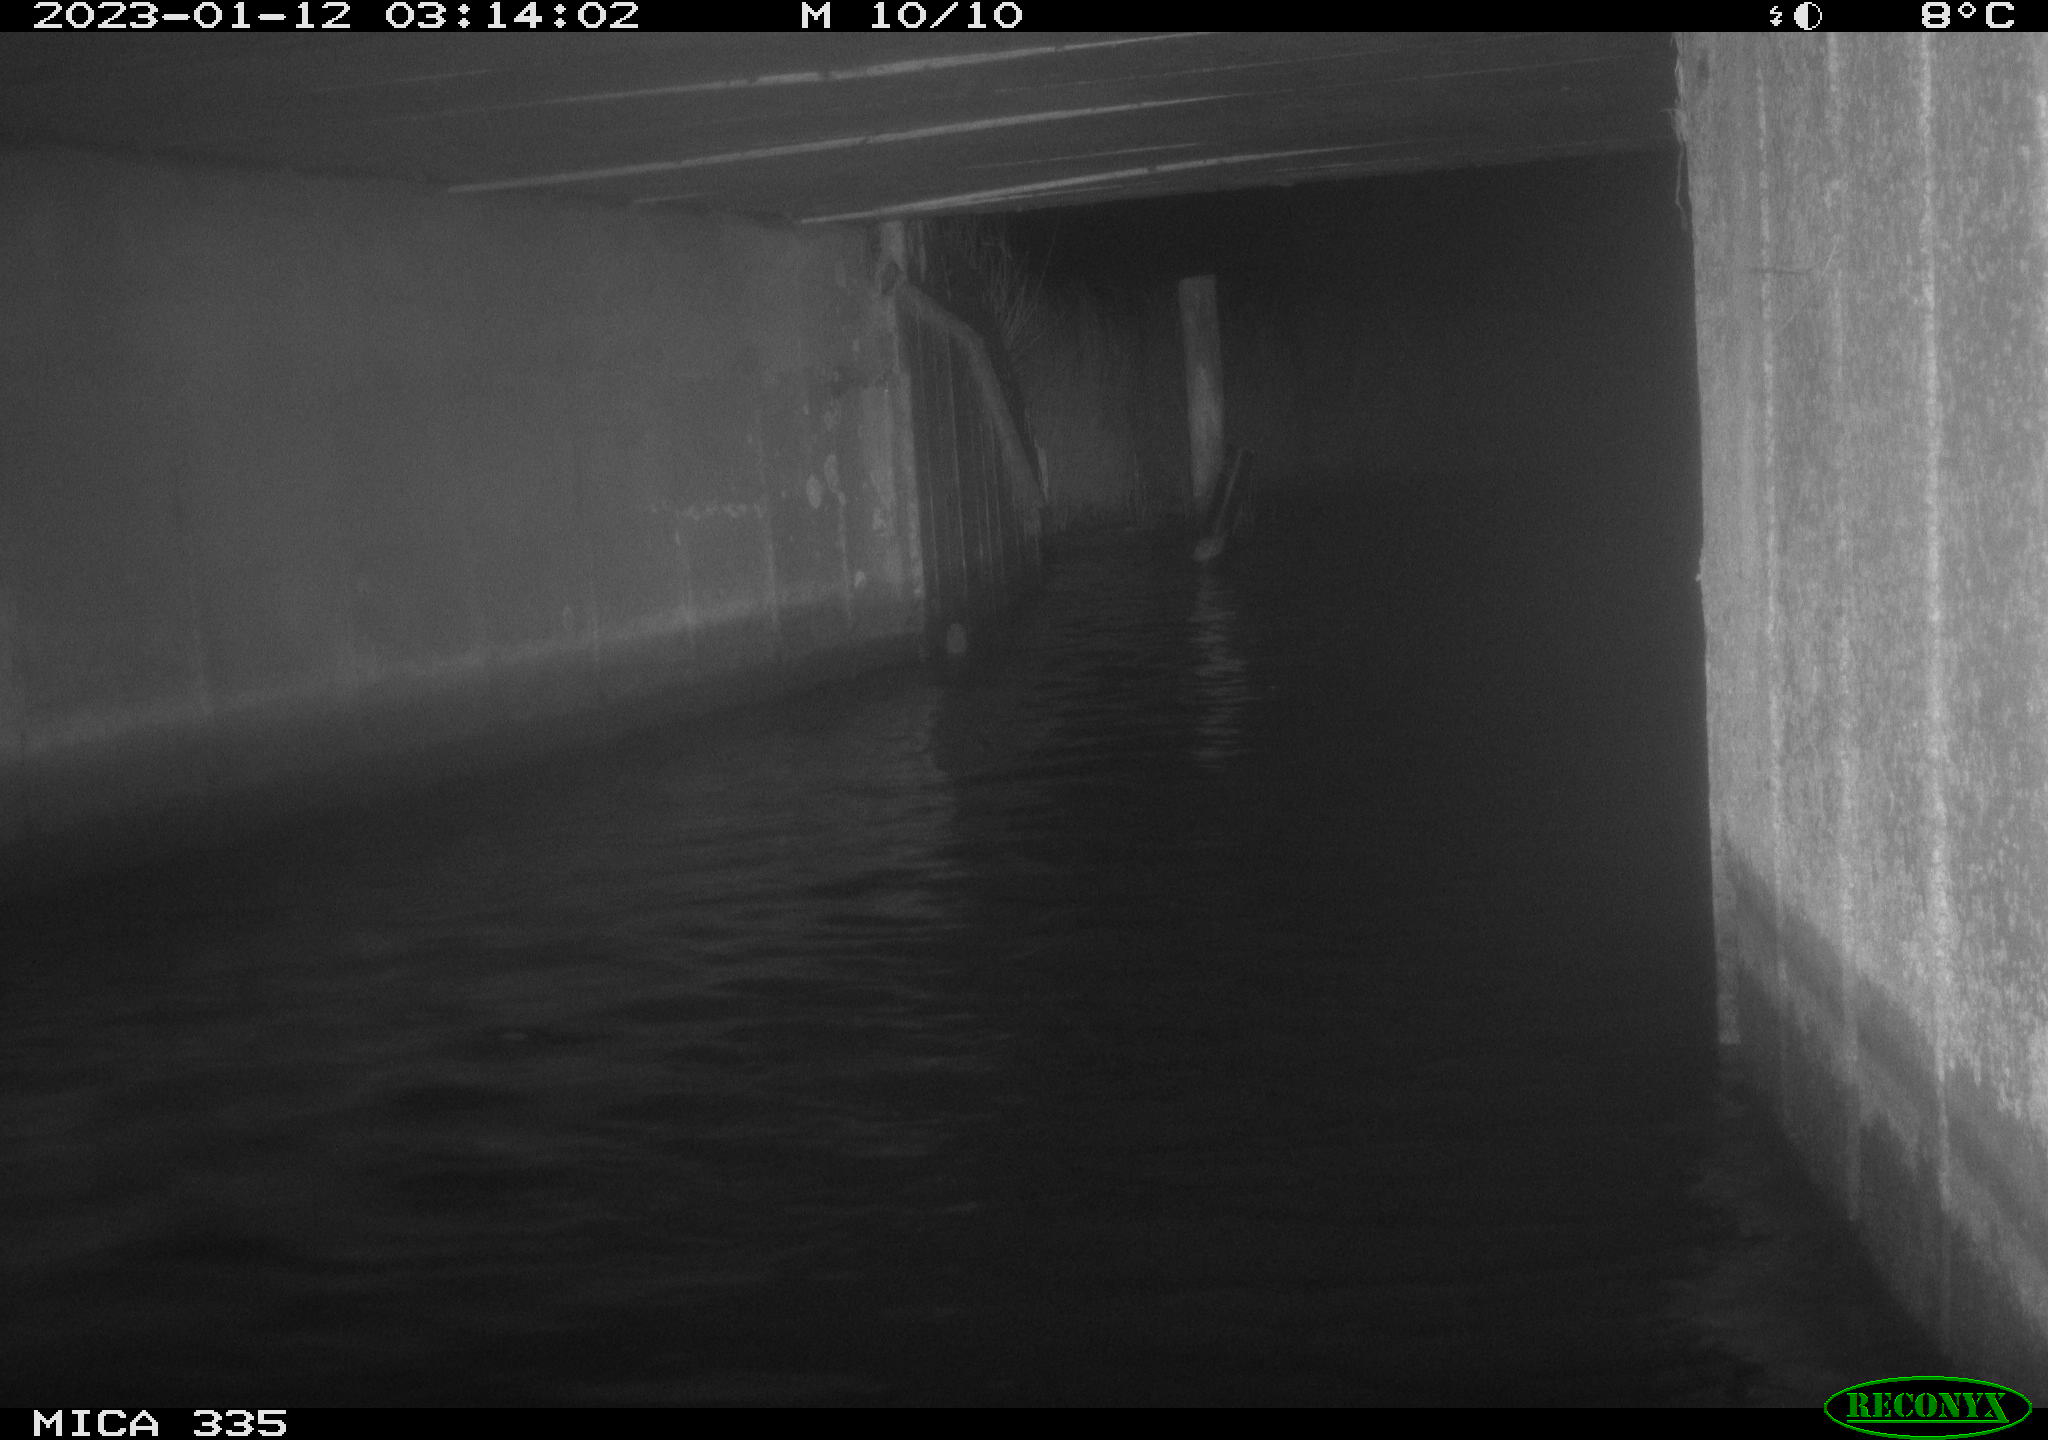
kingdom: Animalia
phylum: Chordata
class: Aves
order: Anseriformes
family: Anatidae
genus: Cygnus
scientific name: Cygnus olor
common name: Mute swan
